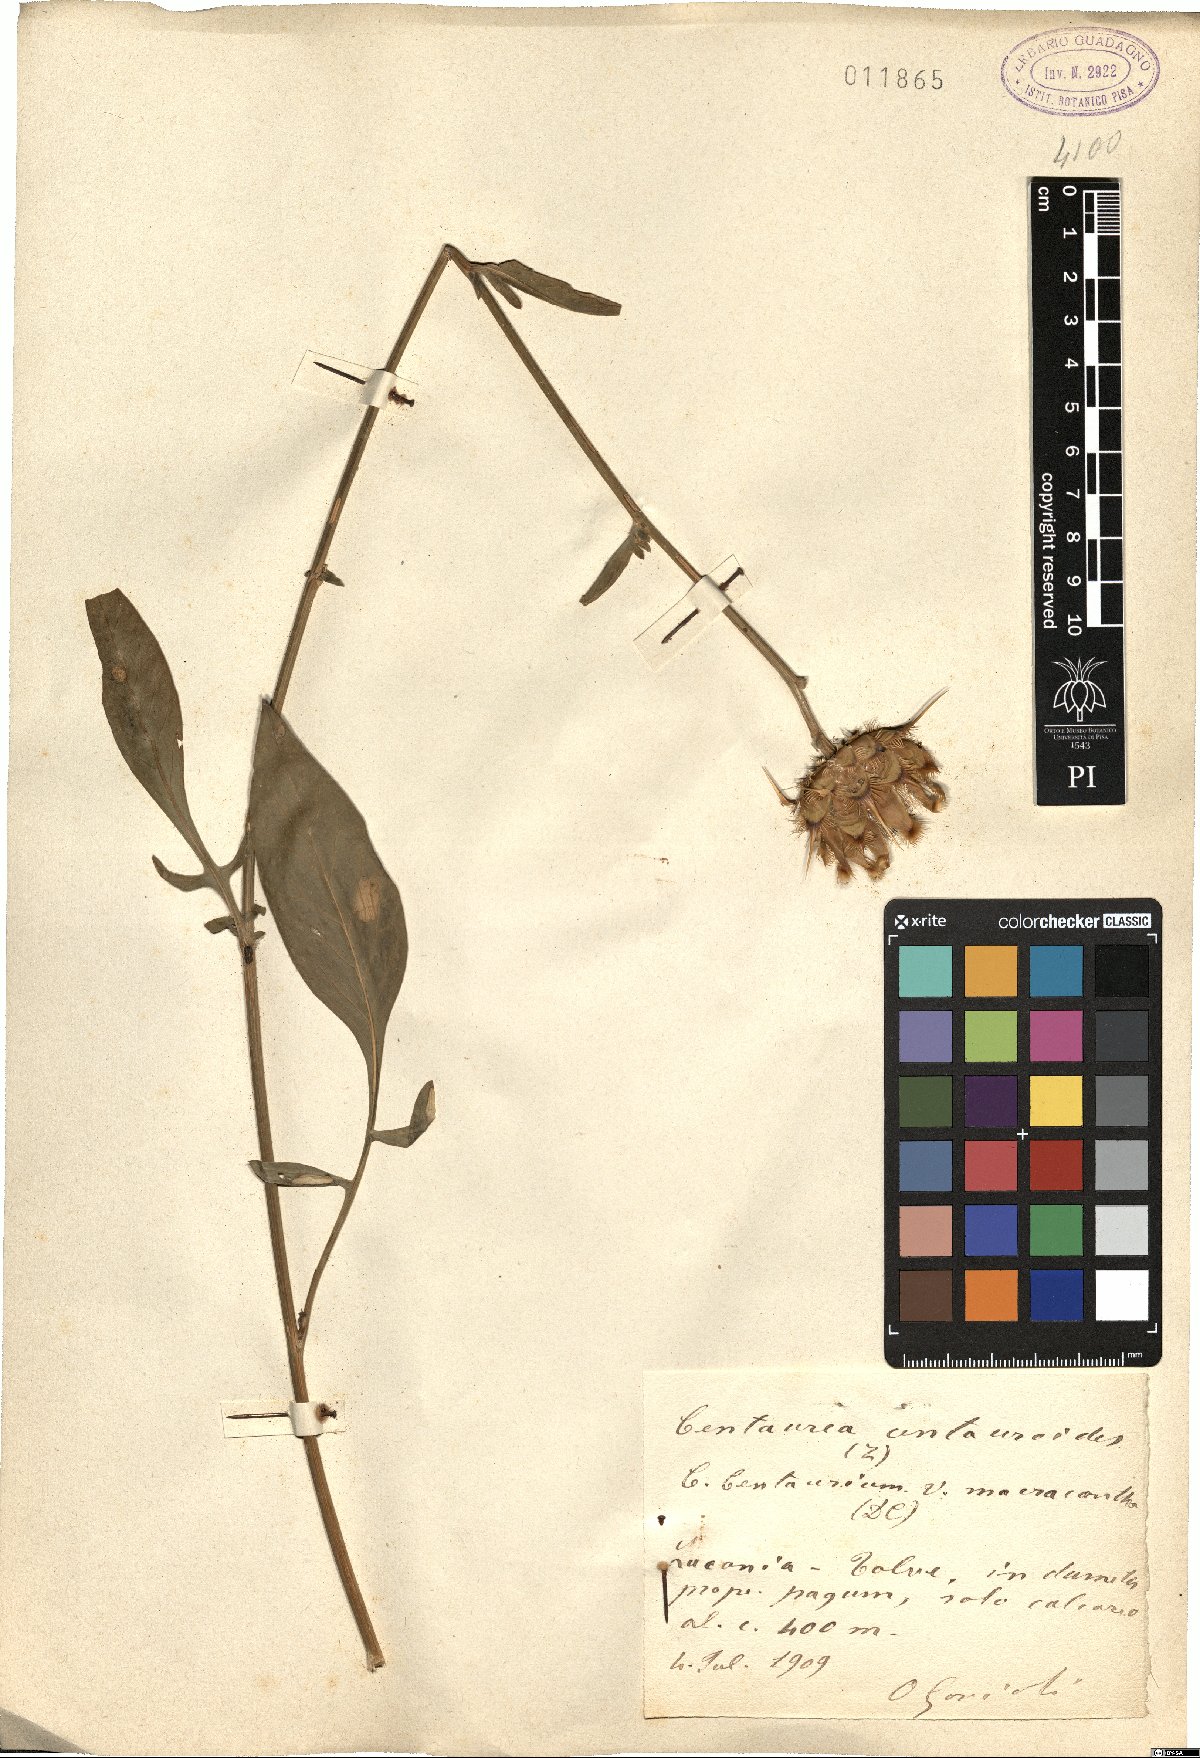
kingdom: Plantae
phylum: Tracheophyta
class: Magnoliopsida
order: Asterales
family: Asteraceae
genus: Centaurea
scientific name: Centaurea centauroides
